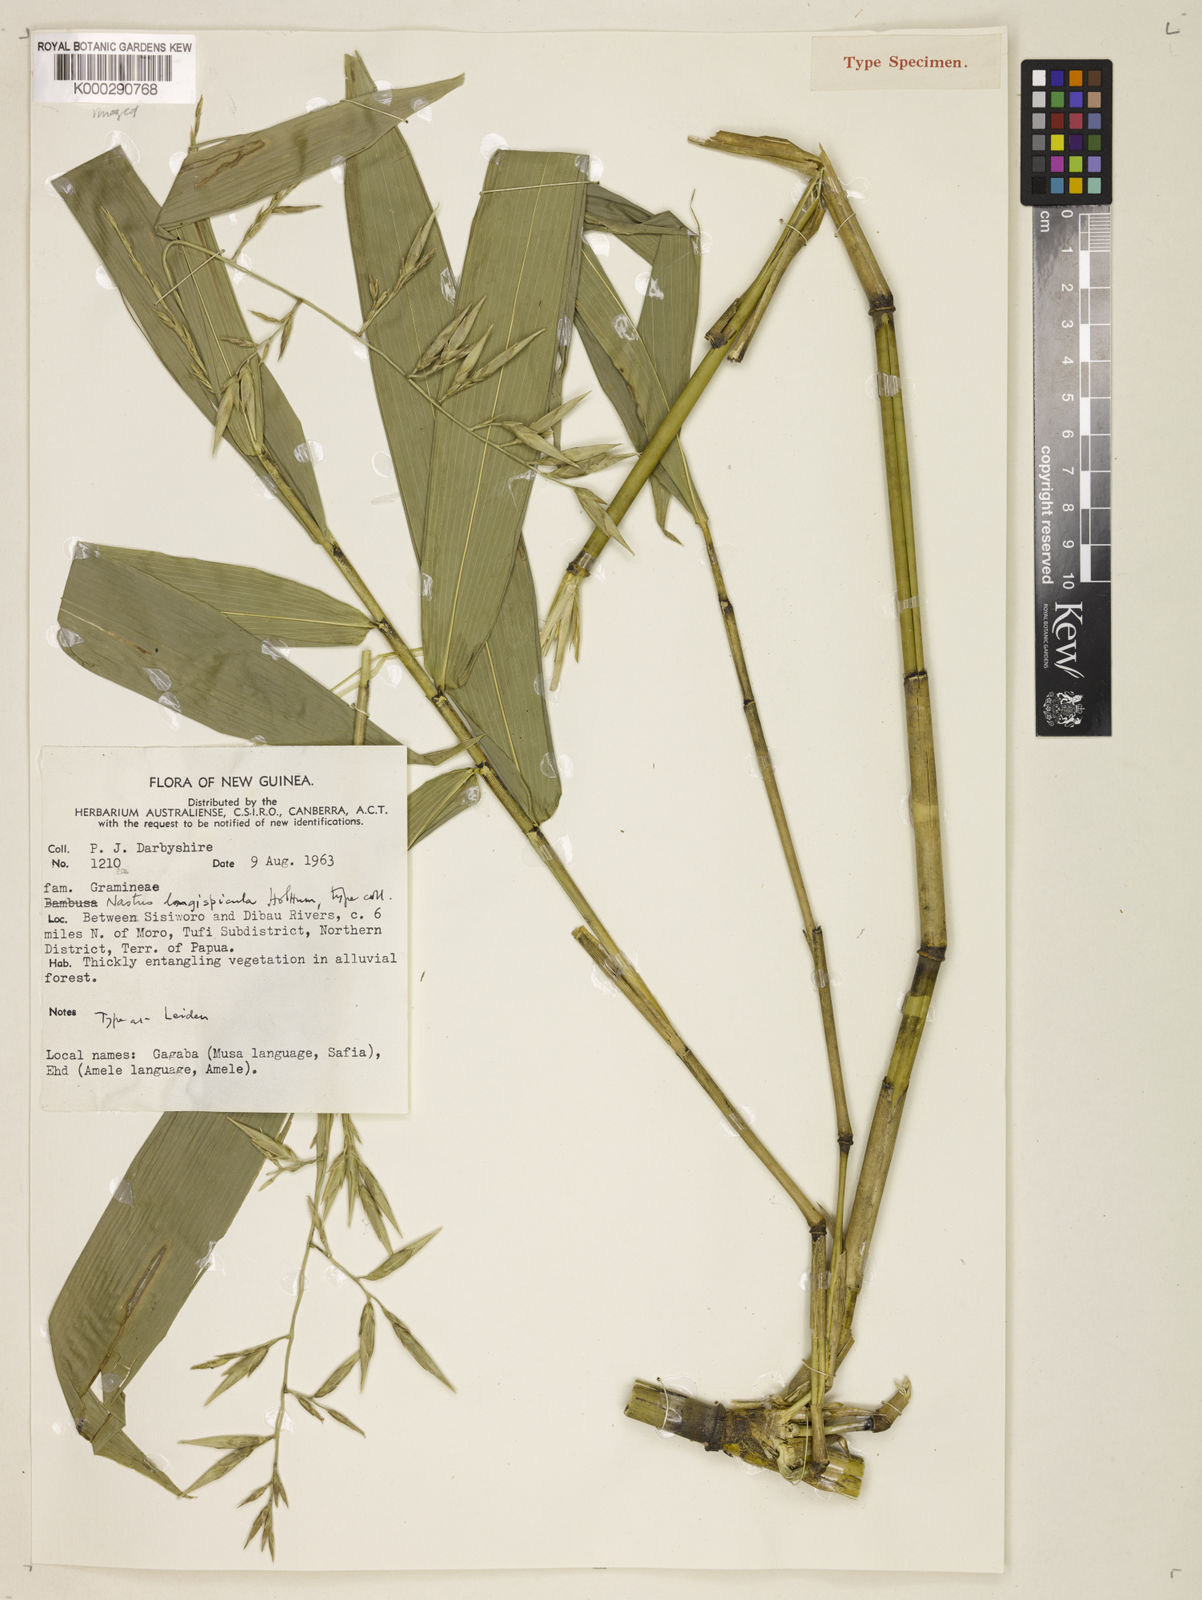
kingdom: Plantae
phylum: Tracheophyta
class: Liliopsida
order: Poales
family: Poaceae
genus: Chloothamnus
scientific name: Chloothamnus longispiculus
